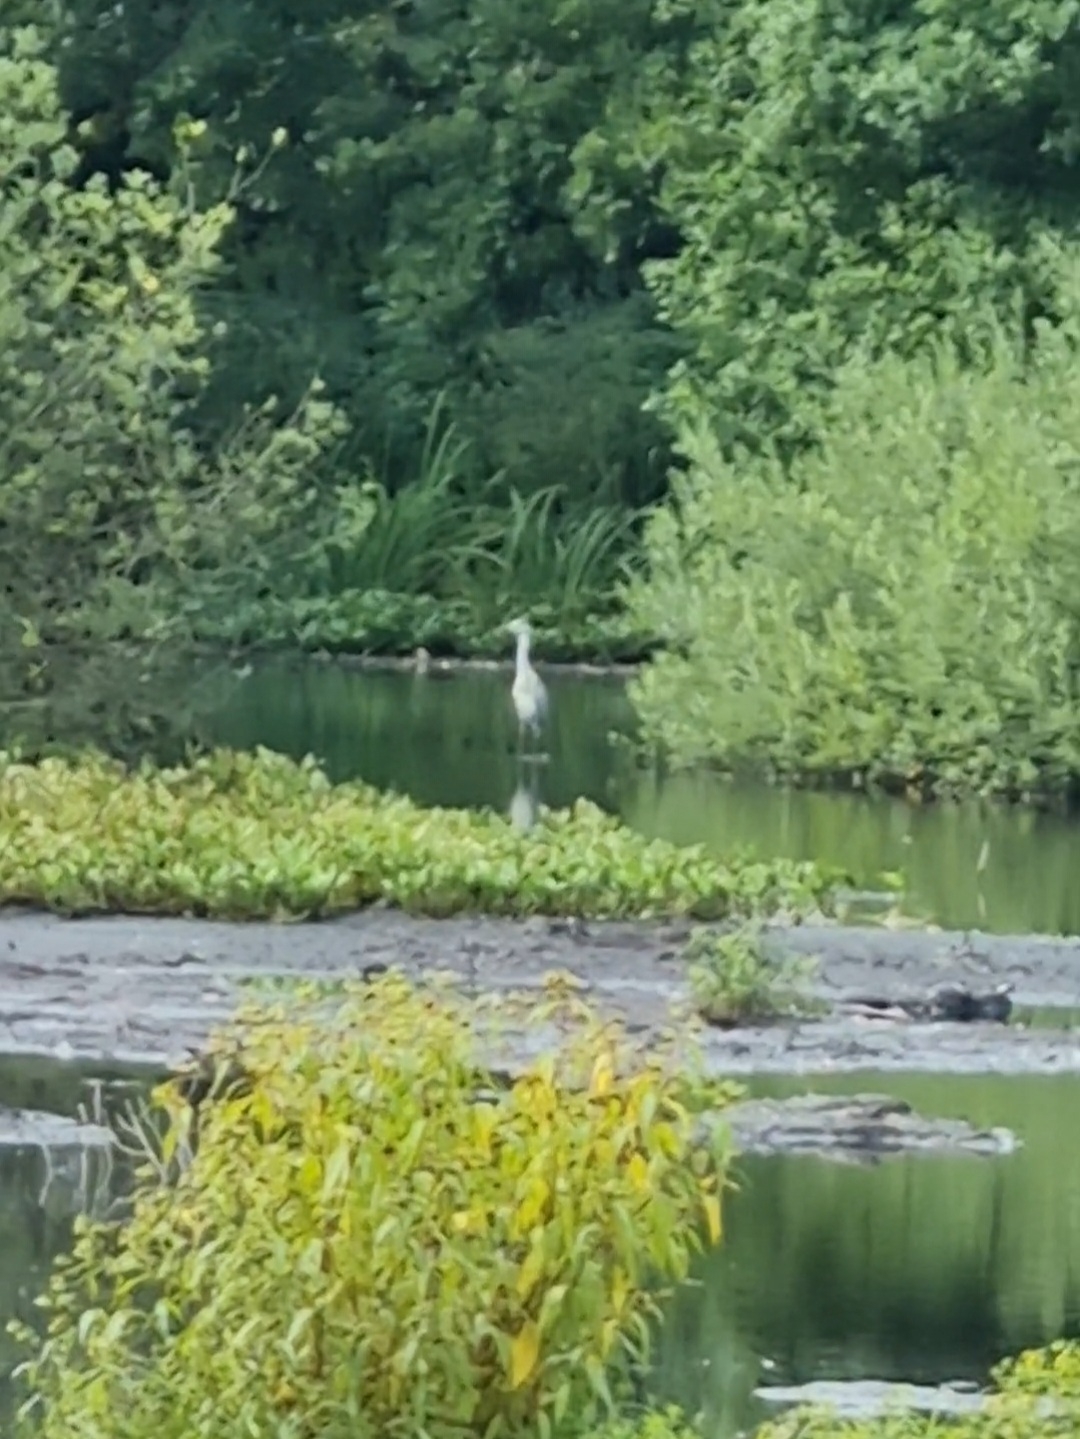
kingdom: Animalia
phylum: Chordata
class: Aves
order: Pelecaniformes
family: Ardeidae
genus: Ardea
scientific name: Ardea cinerea
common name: Fiskehejre
